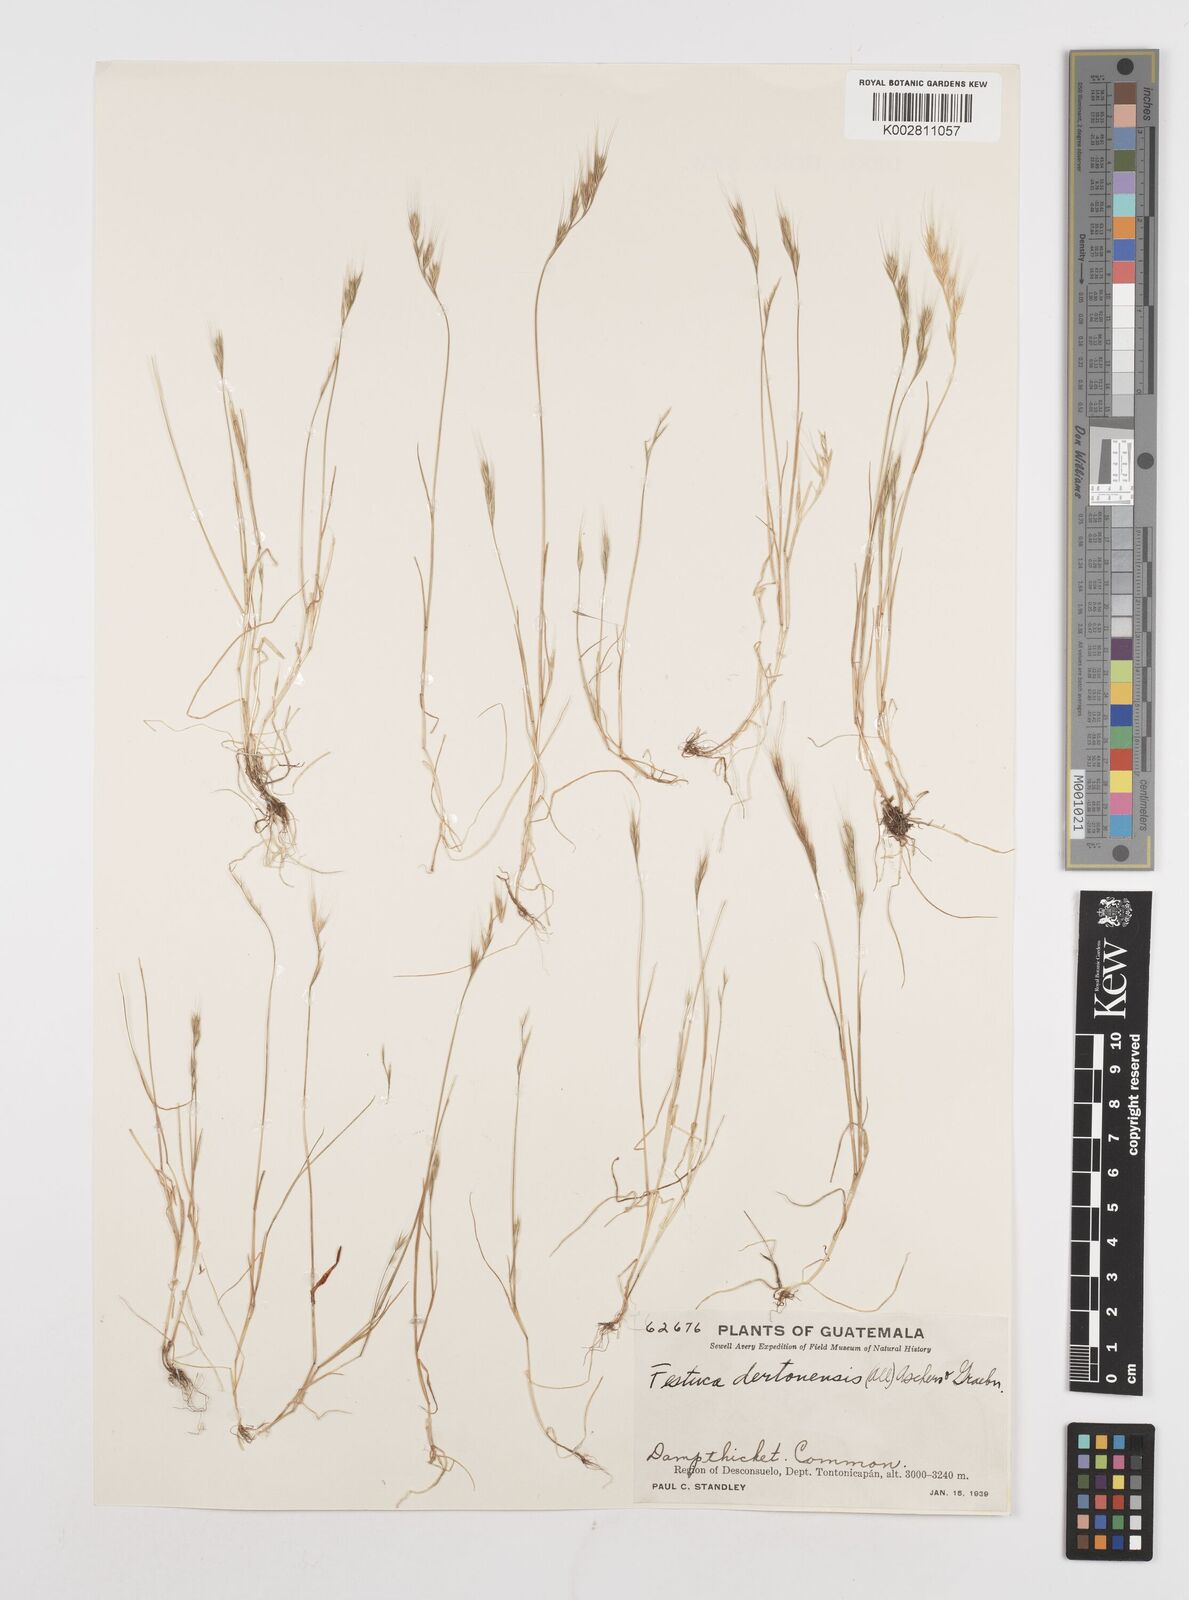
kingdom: Plantae
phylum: Tracheophyta
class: Liliopsida
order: Poales
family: Poaceae
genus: Festuca
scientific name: Festuca bromoides
